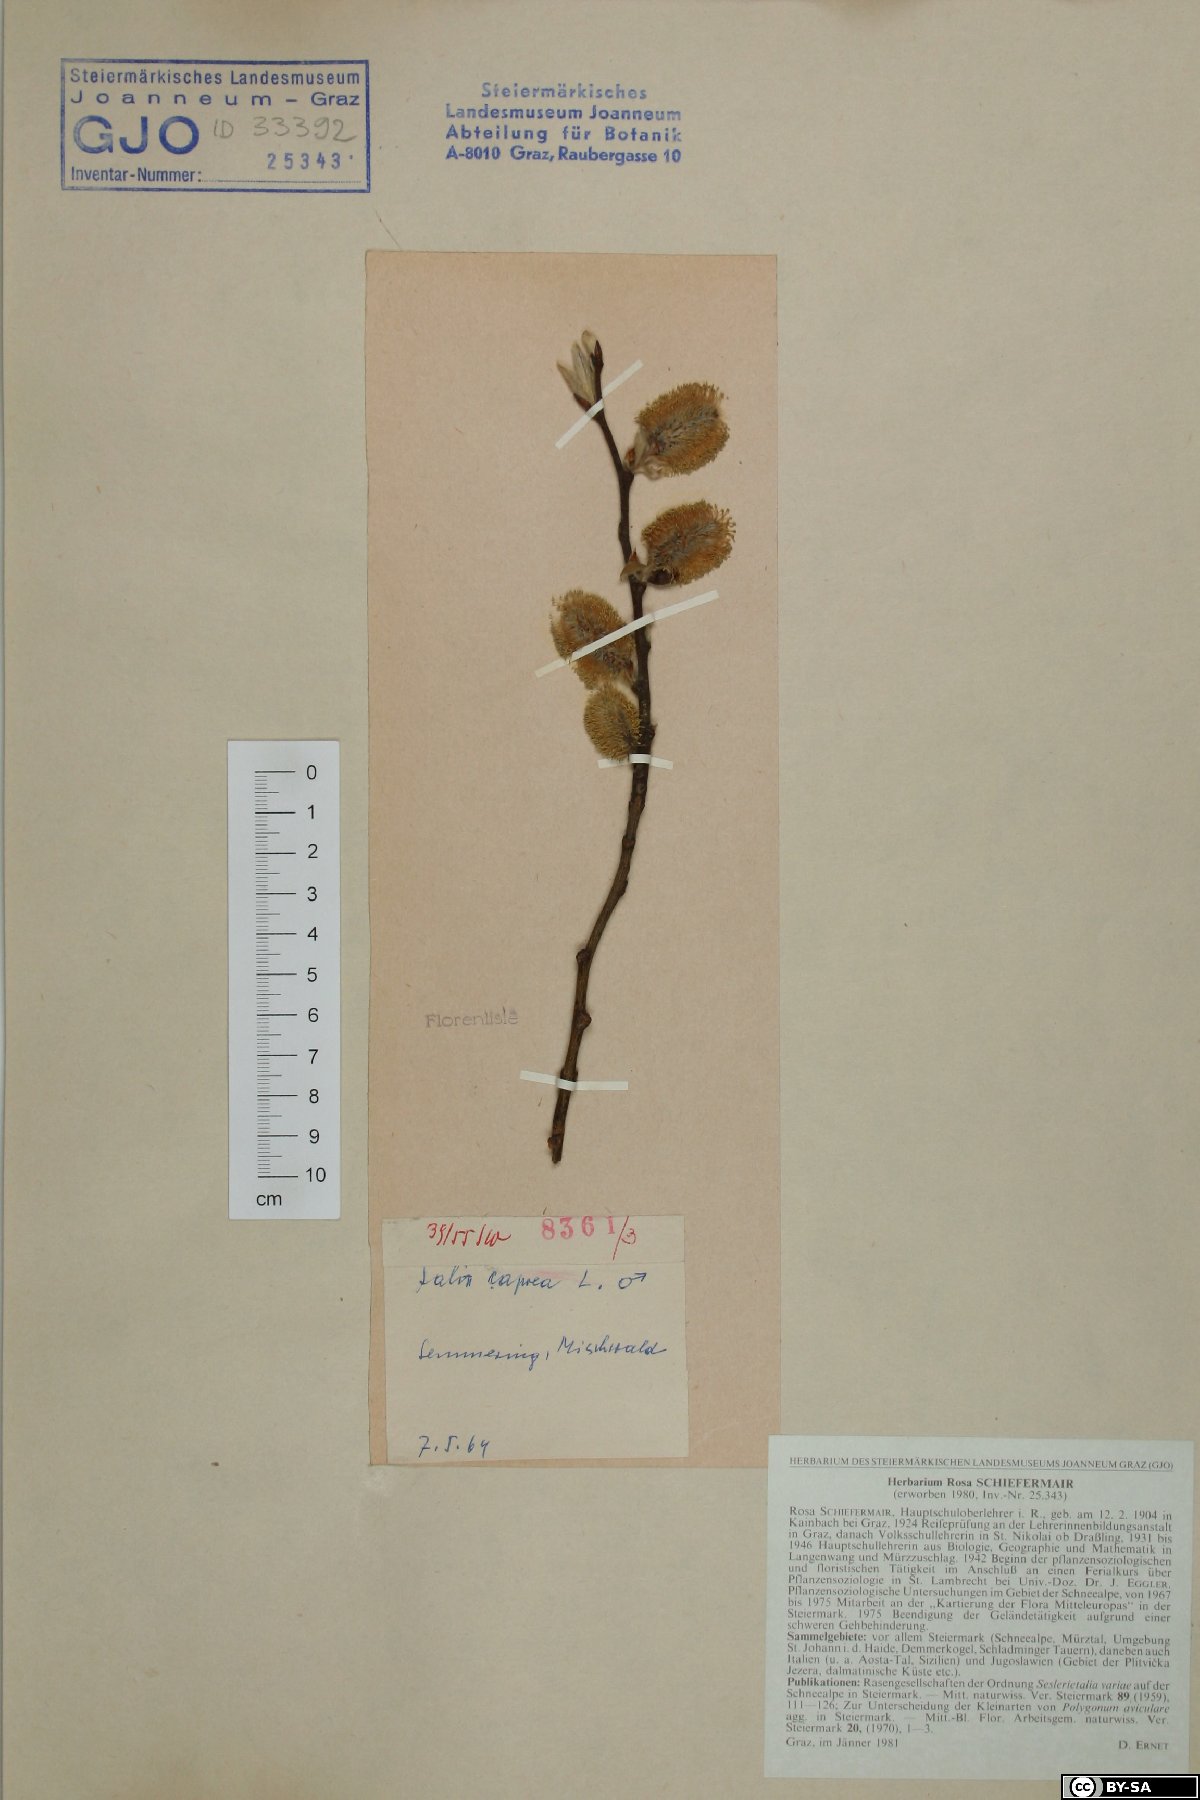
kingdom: Plantae
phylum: Tracheophyta
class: Magnoliopsida
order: Malpighiales
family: Salicaceae
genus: Salix
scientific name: Salix caprea
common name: Goat willow
